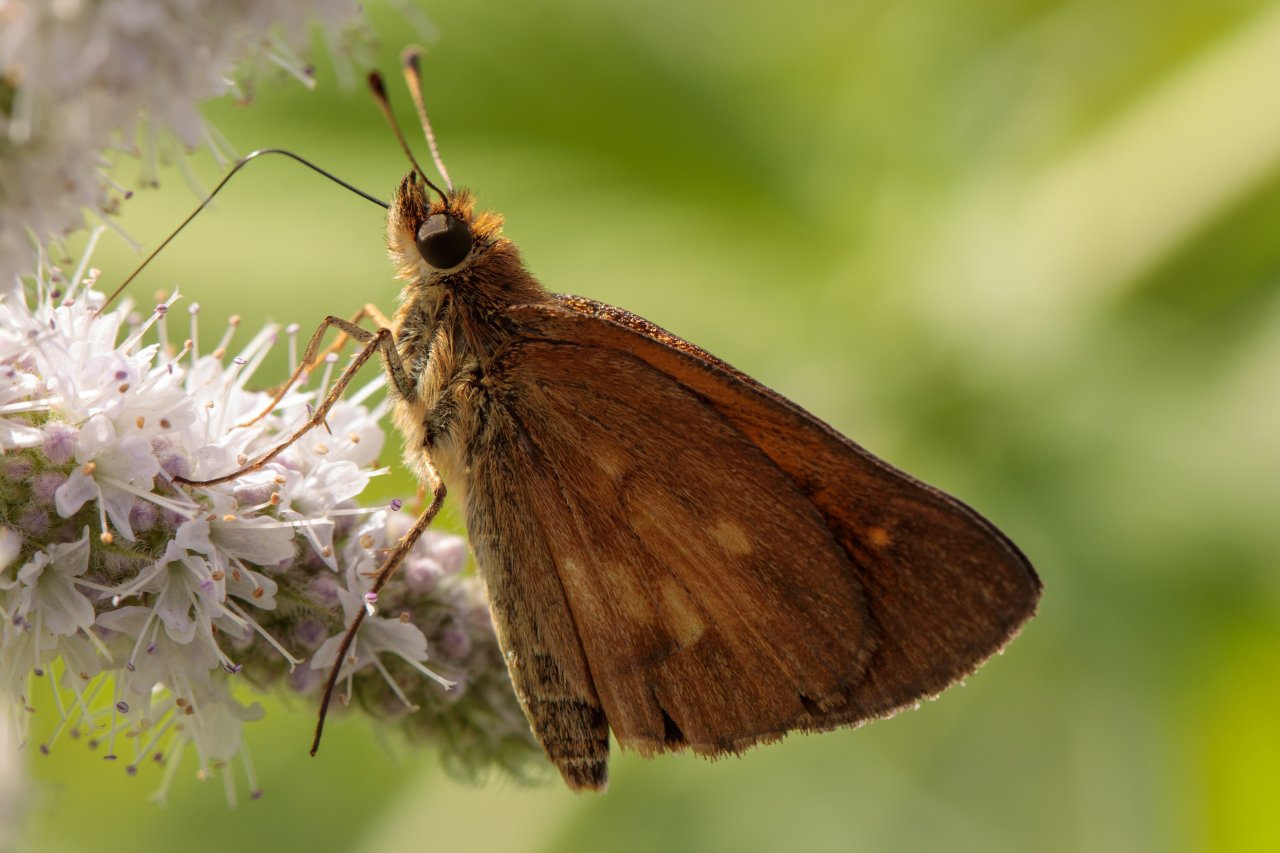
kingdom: Animalia
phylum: Arthropoda
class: Insecta
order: Lepidoptera
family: Hesperiidae
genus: Poanes
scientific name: Poanes viator
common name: Broad-winged Skipper
